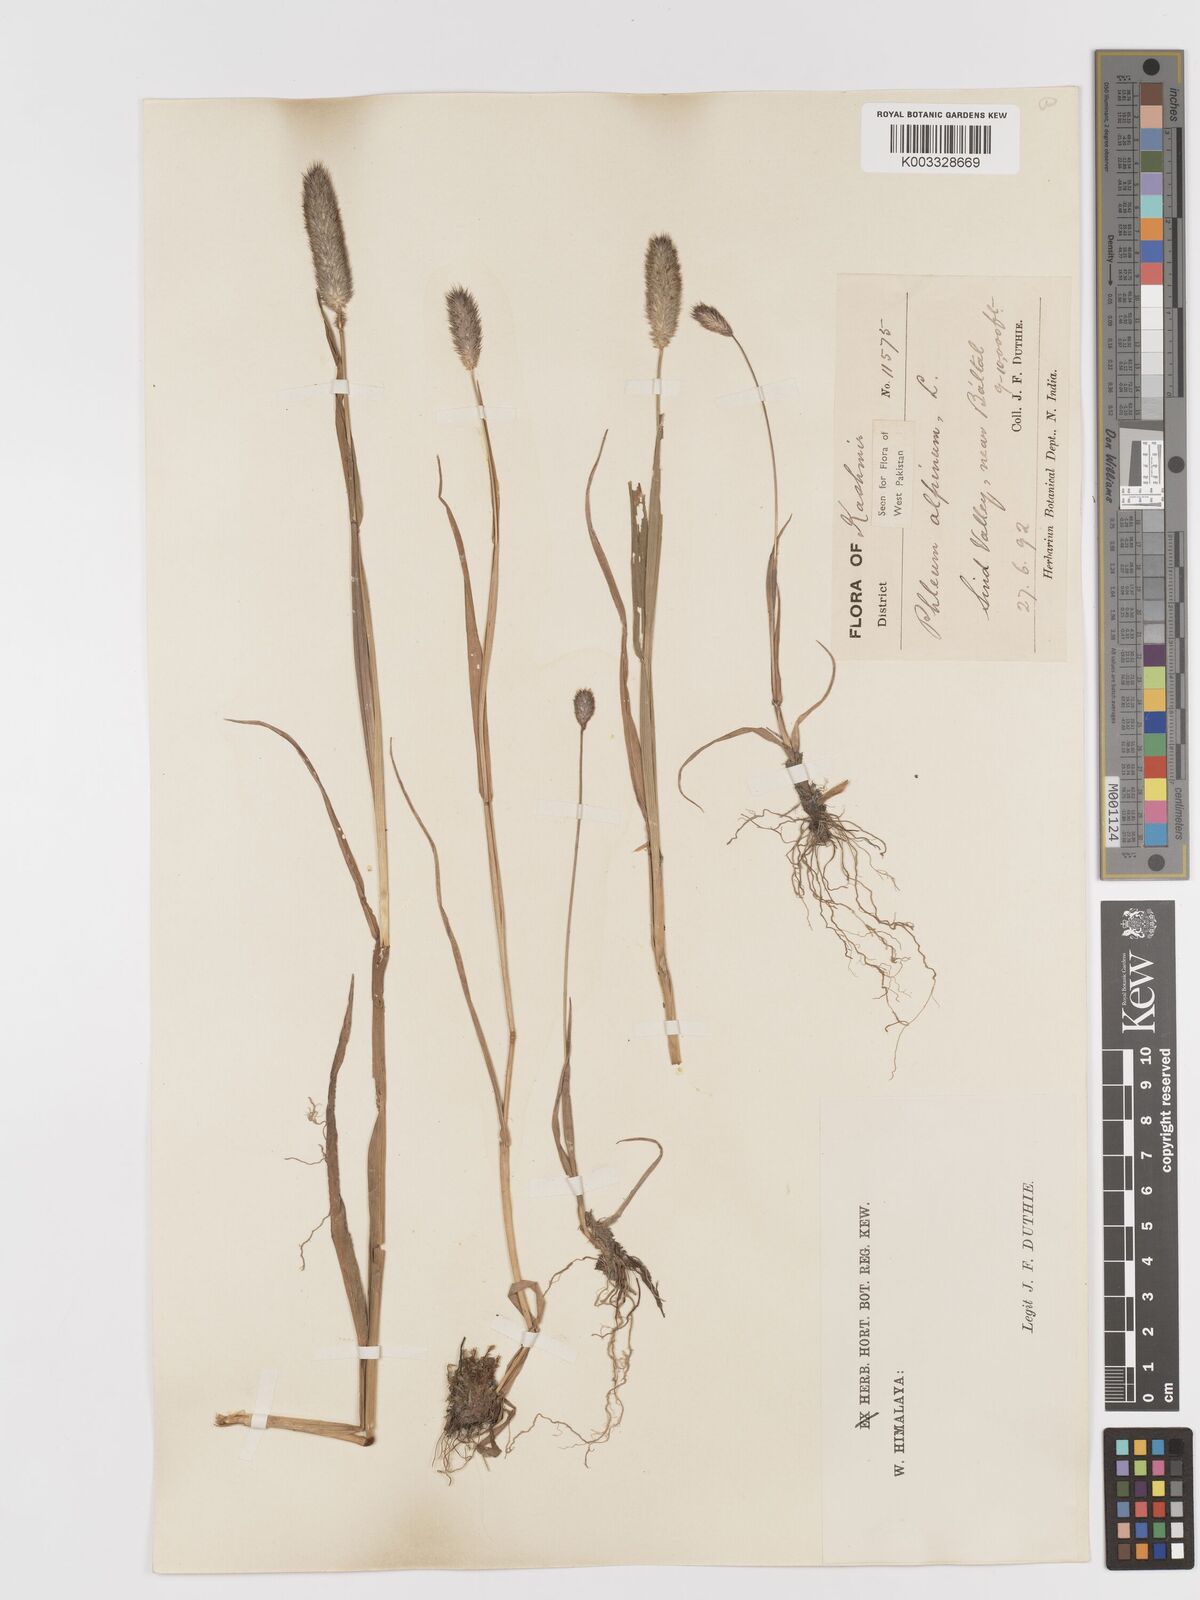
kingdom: Plantae
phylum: Tracheophyta
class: Liliopsida
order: Poales
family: Poaceae
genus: Phleum
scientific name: Phleum alpinum
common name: Alpine cat's-tail
